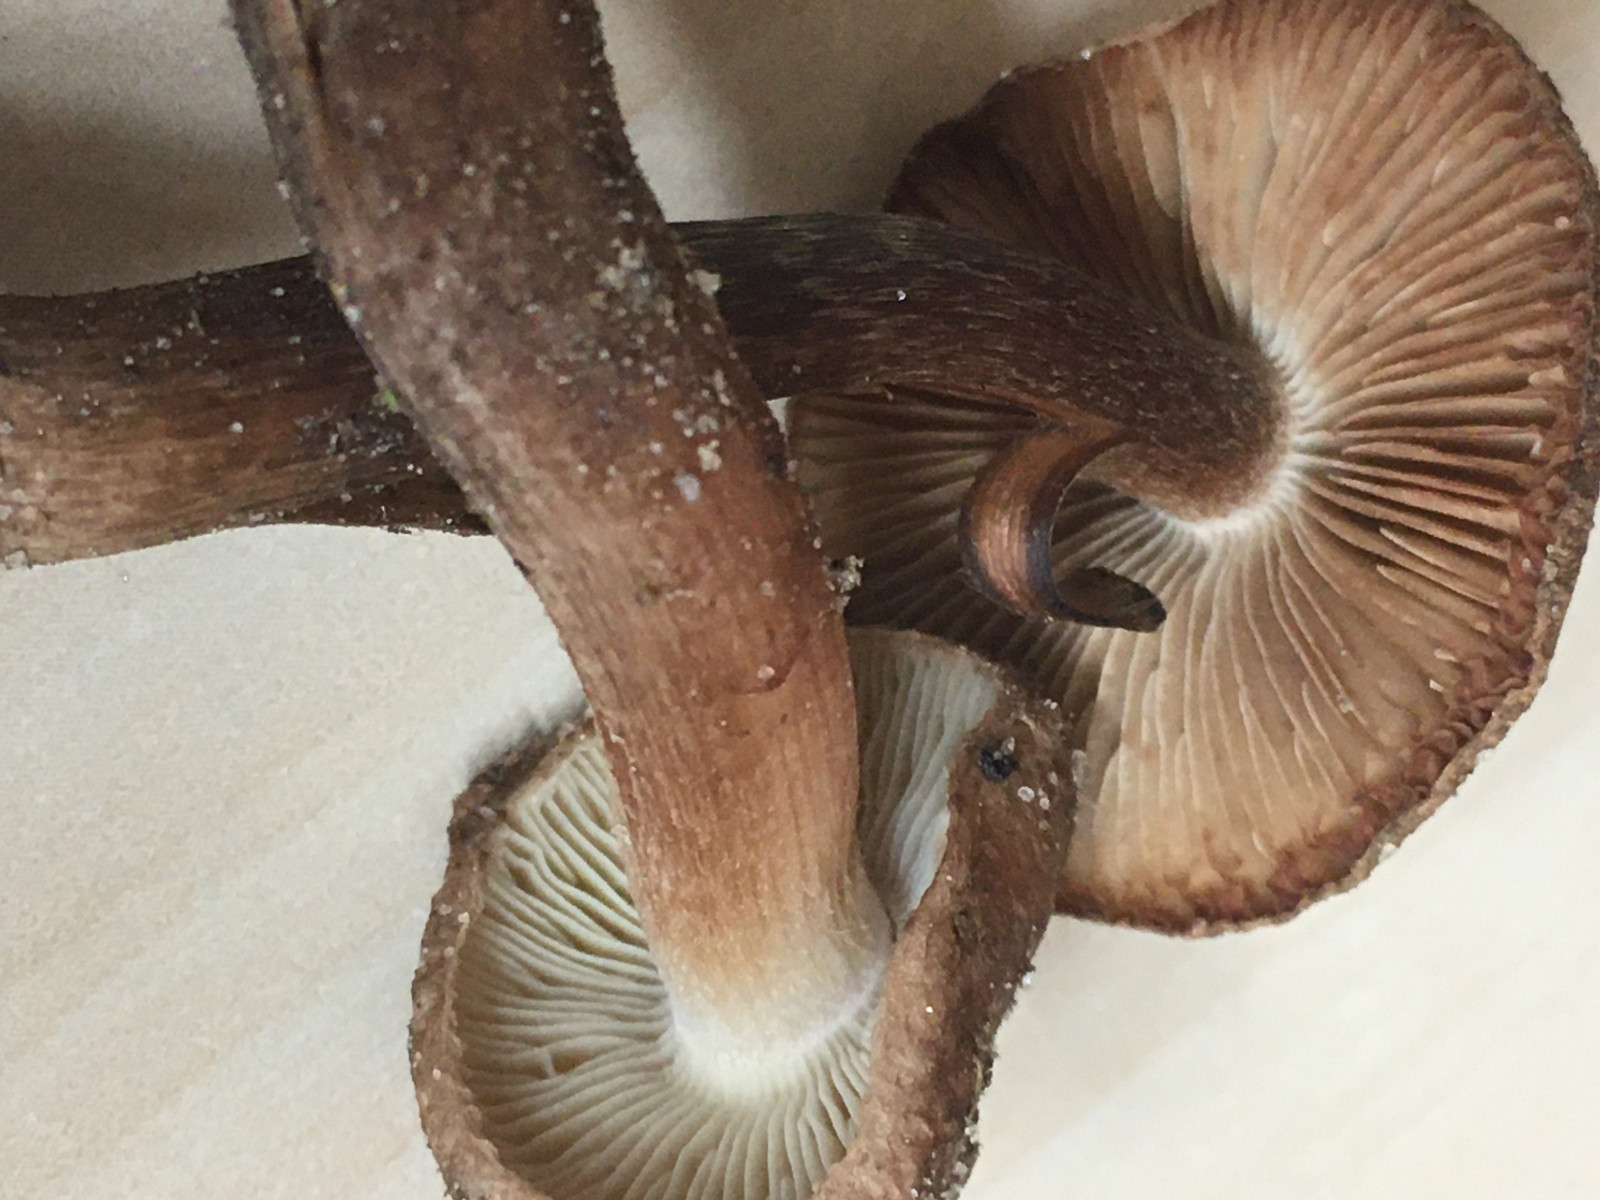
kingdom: Fungi
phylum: Basidiomycota
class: Agaricomycetes
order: Agaricales
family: Inocybaceae
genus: Inocybe
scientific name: Inocybe
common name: trævlhat
